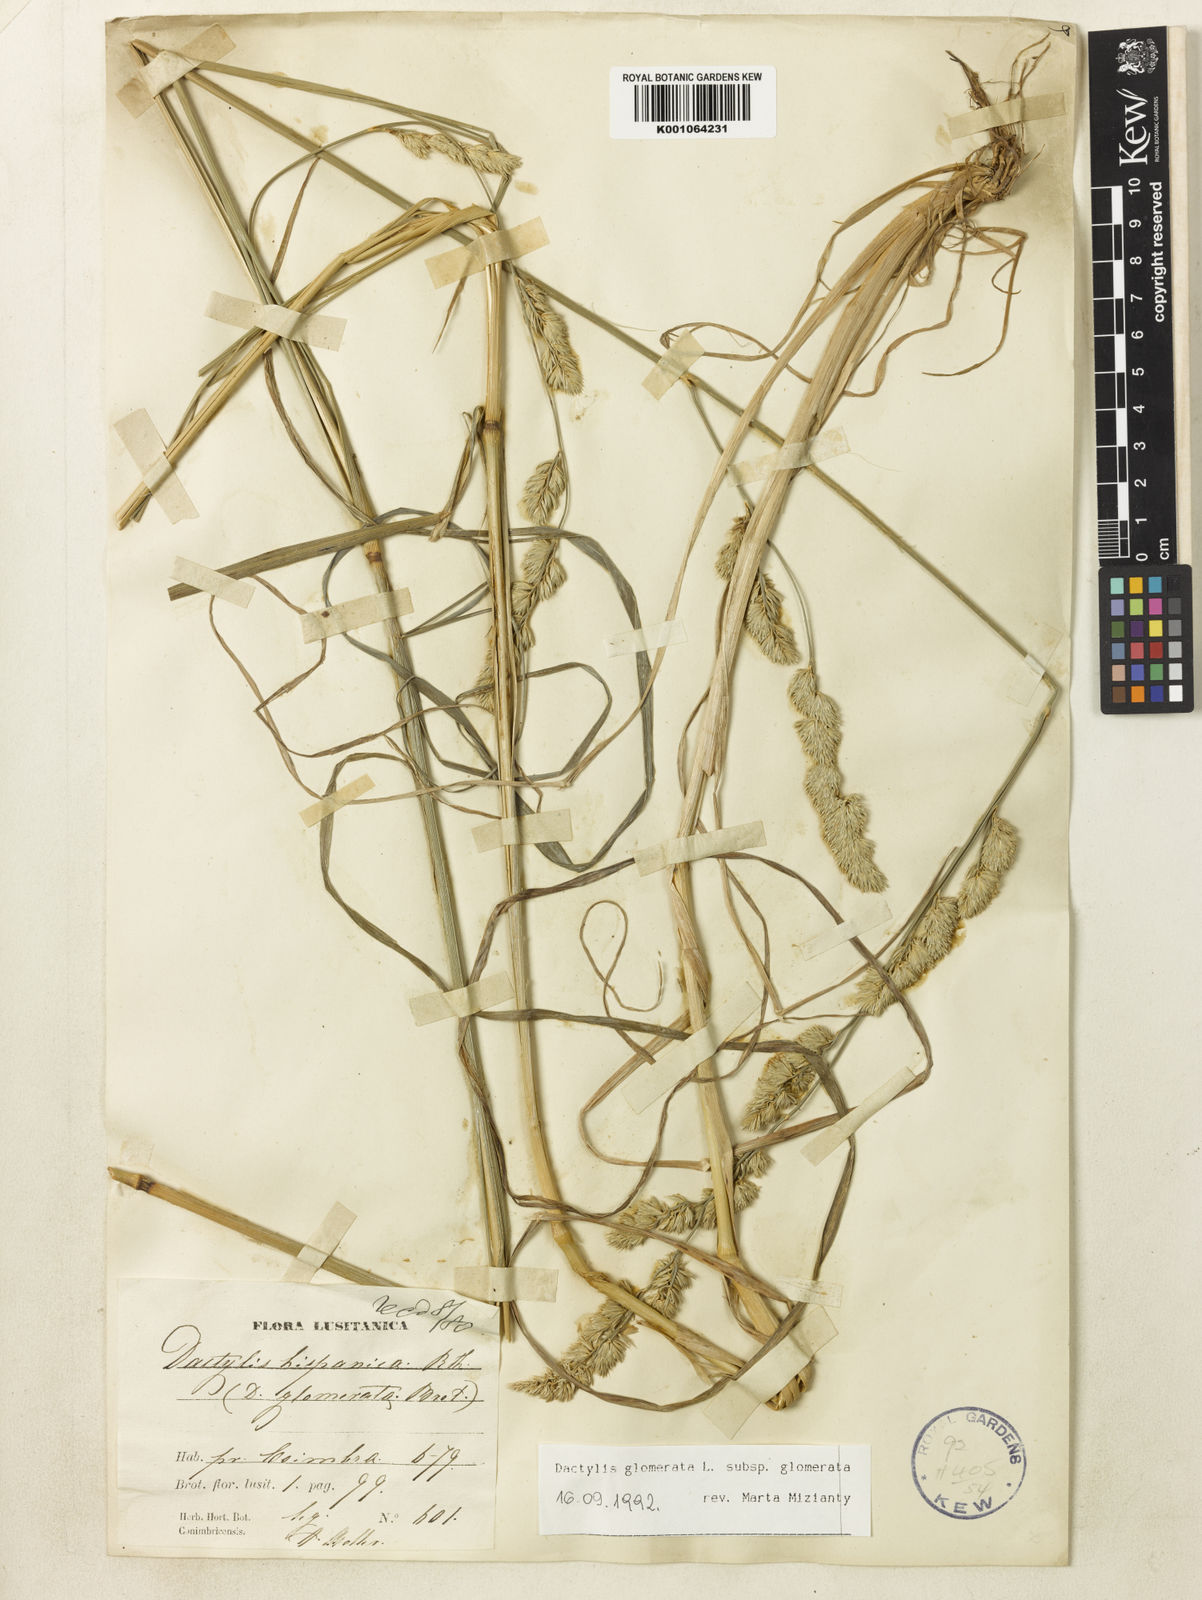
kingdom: Plantae
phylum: Tracheophyta
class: Liliopsida
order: Poales
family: Poaceae
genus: Dactylis
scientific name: Dactylis glomerata
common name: Orchardgrass
